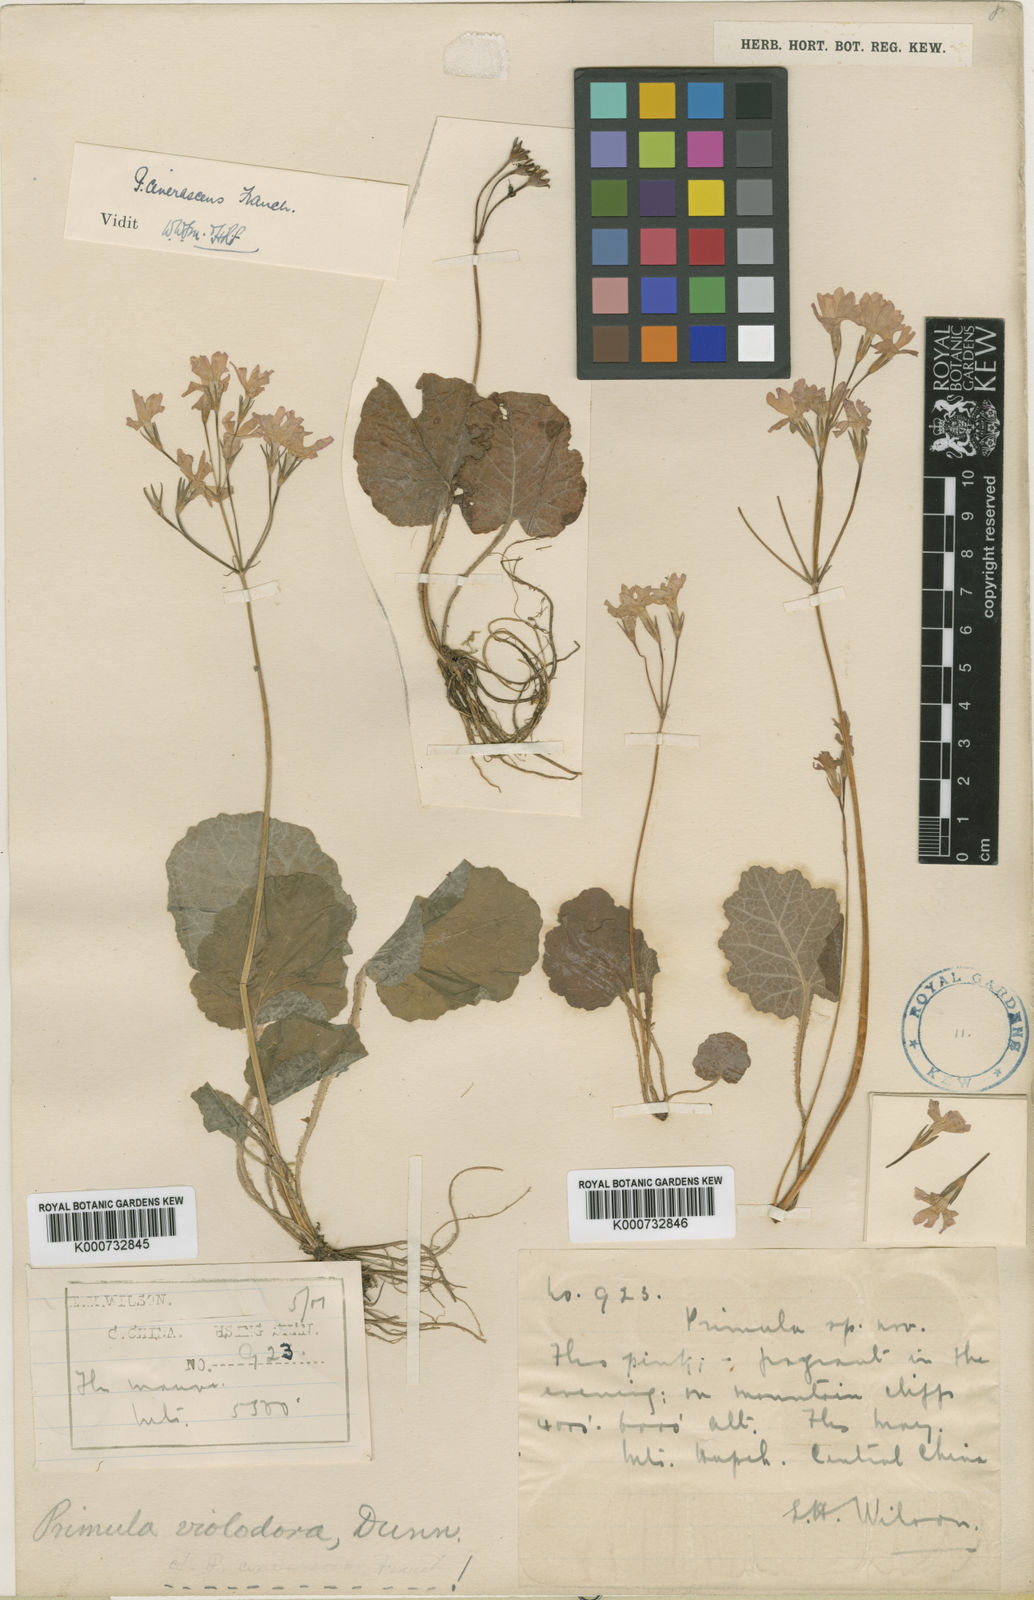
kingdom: Plantae
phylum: Tracheophyta
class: Magnoliopsida
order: Ericales
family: Primulaceae
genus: Primula
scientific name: Primula cinerascens
